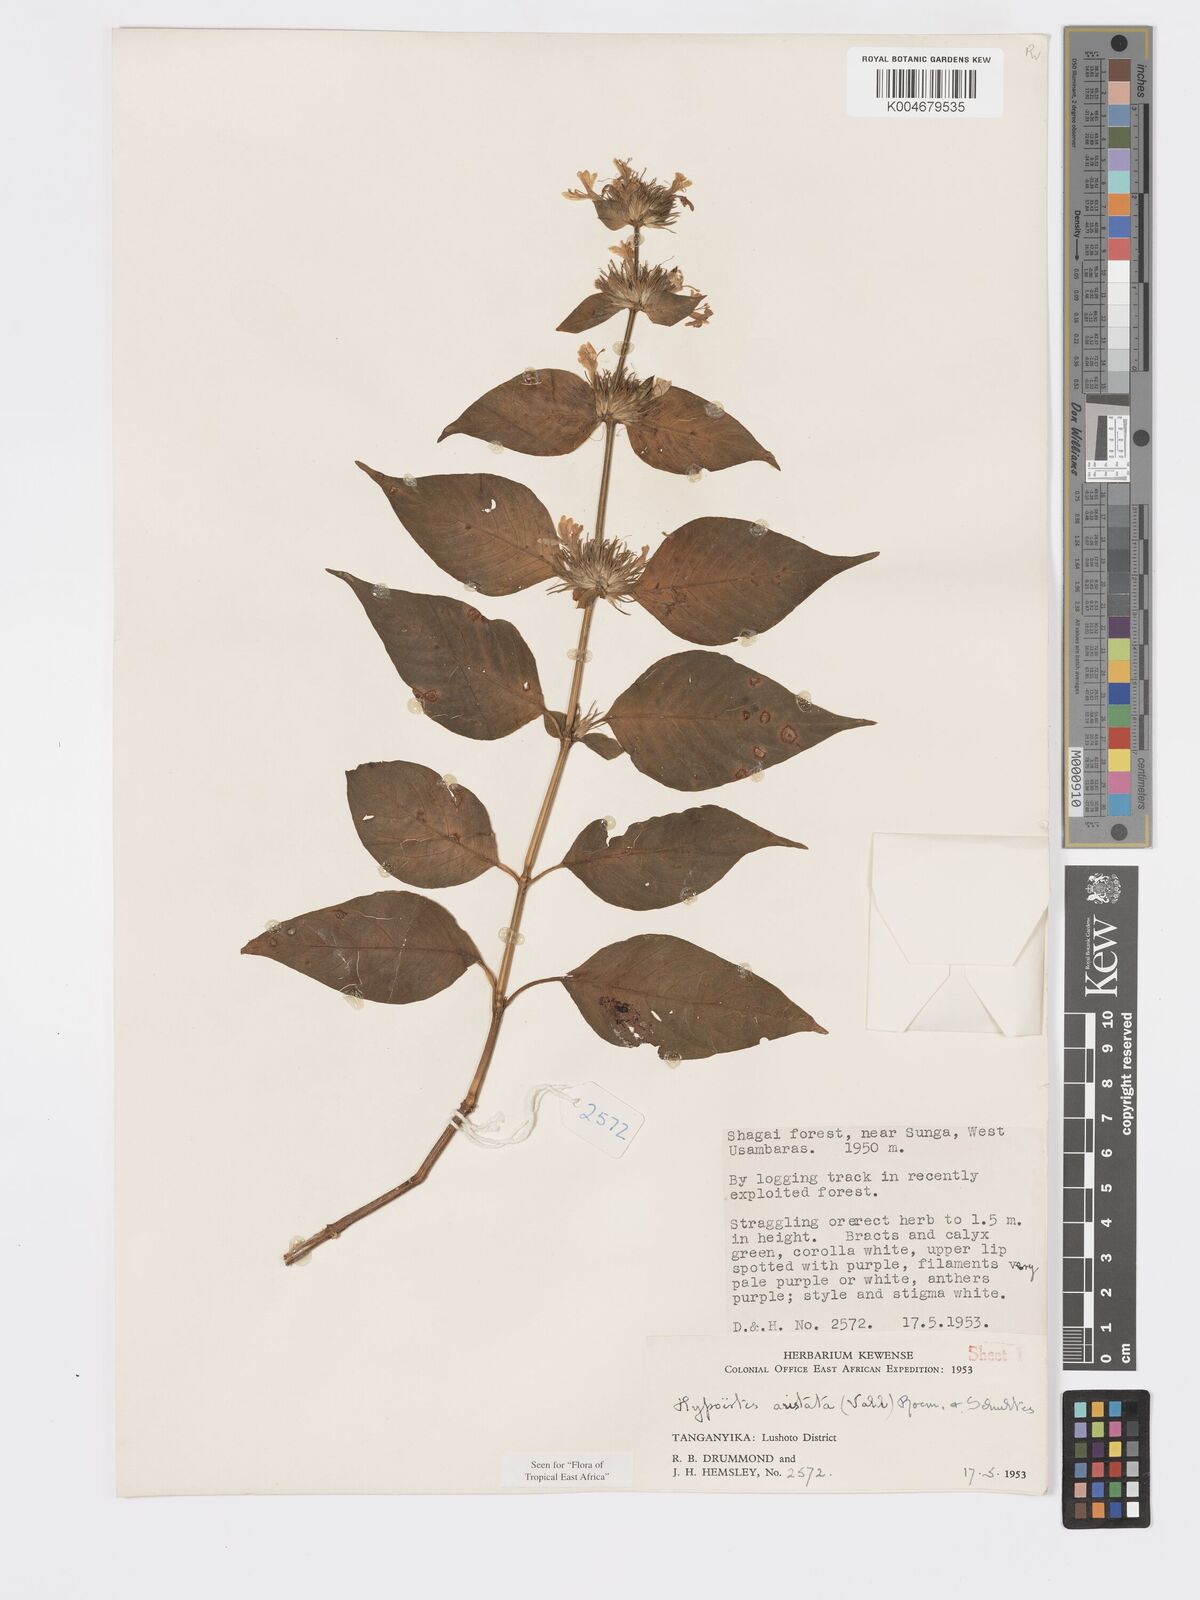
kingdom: Plantae
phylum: Tracheophyta
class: Magnoliopsida
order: Lamiales
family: Acanthaceae
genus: Hypoestes
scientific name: Hypoestes aristata
